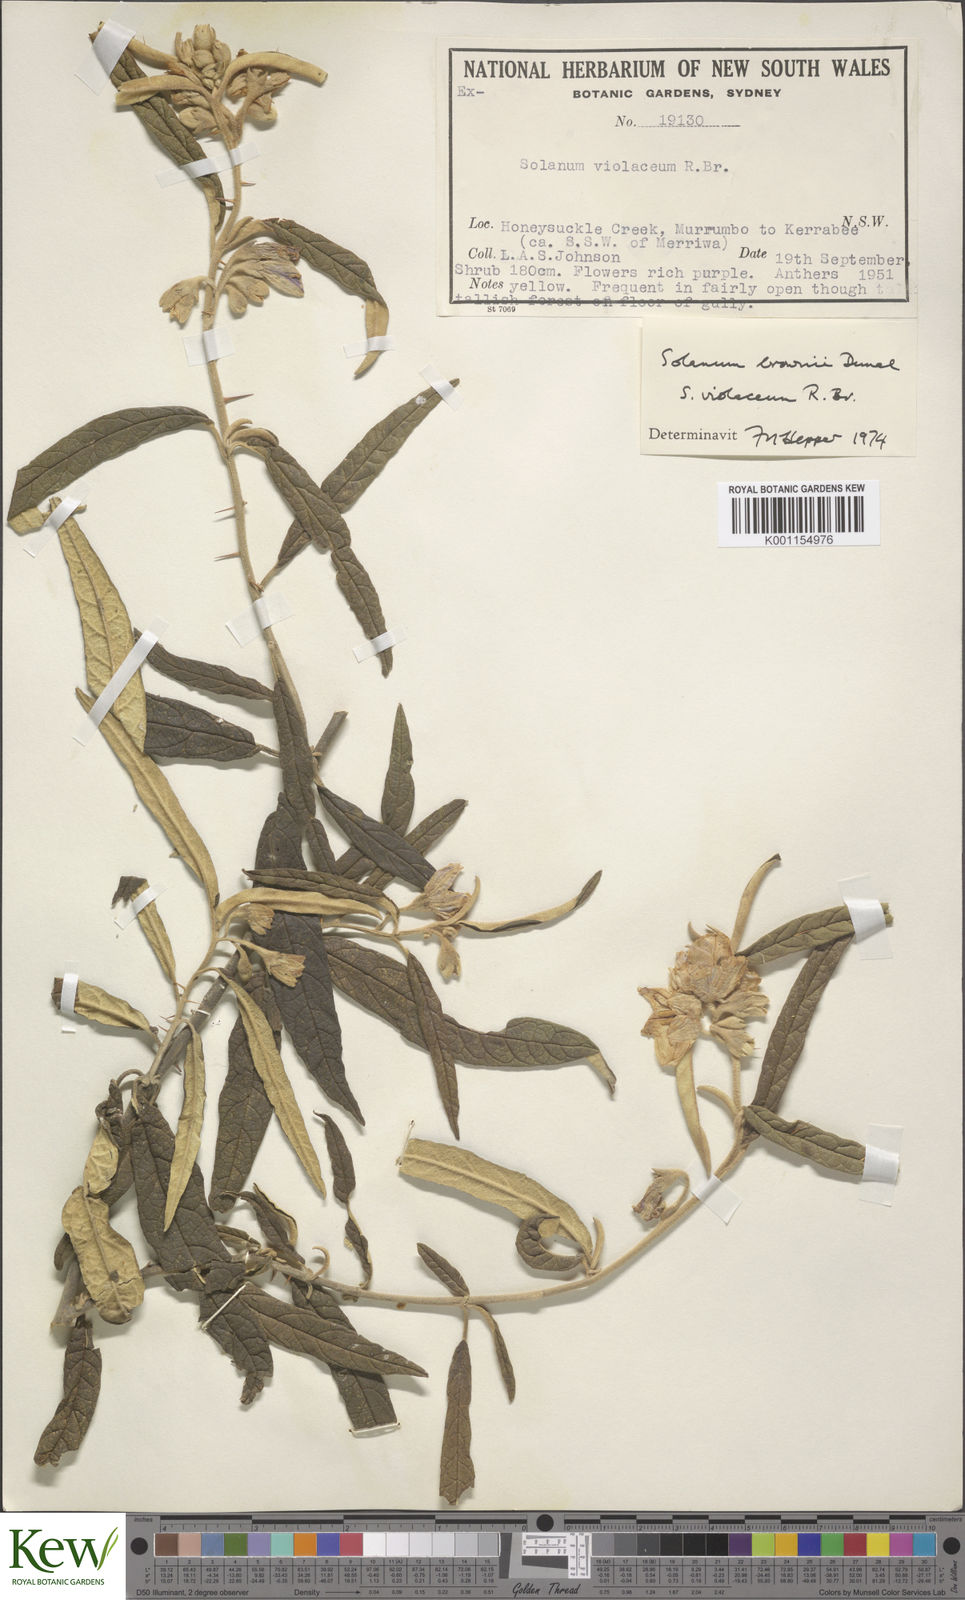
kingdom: Plantae
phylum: Tracheophyta
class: Magnoliopsida
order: Solanales
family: Solanaceae
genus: Solanum
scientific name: Solanum brownii
